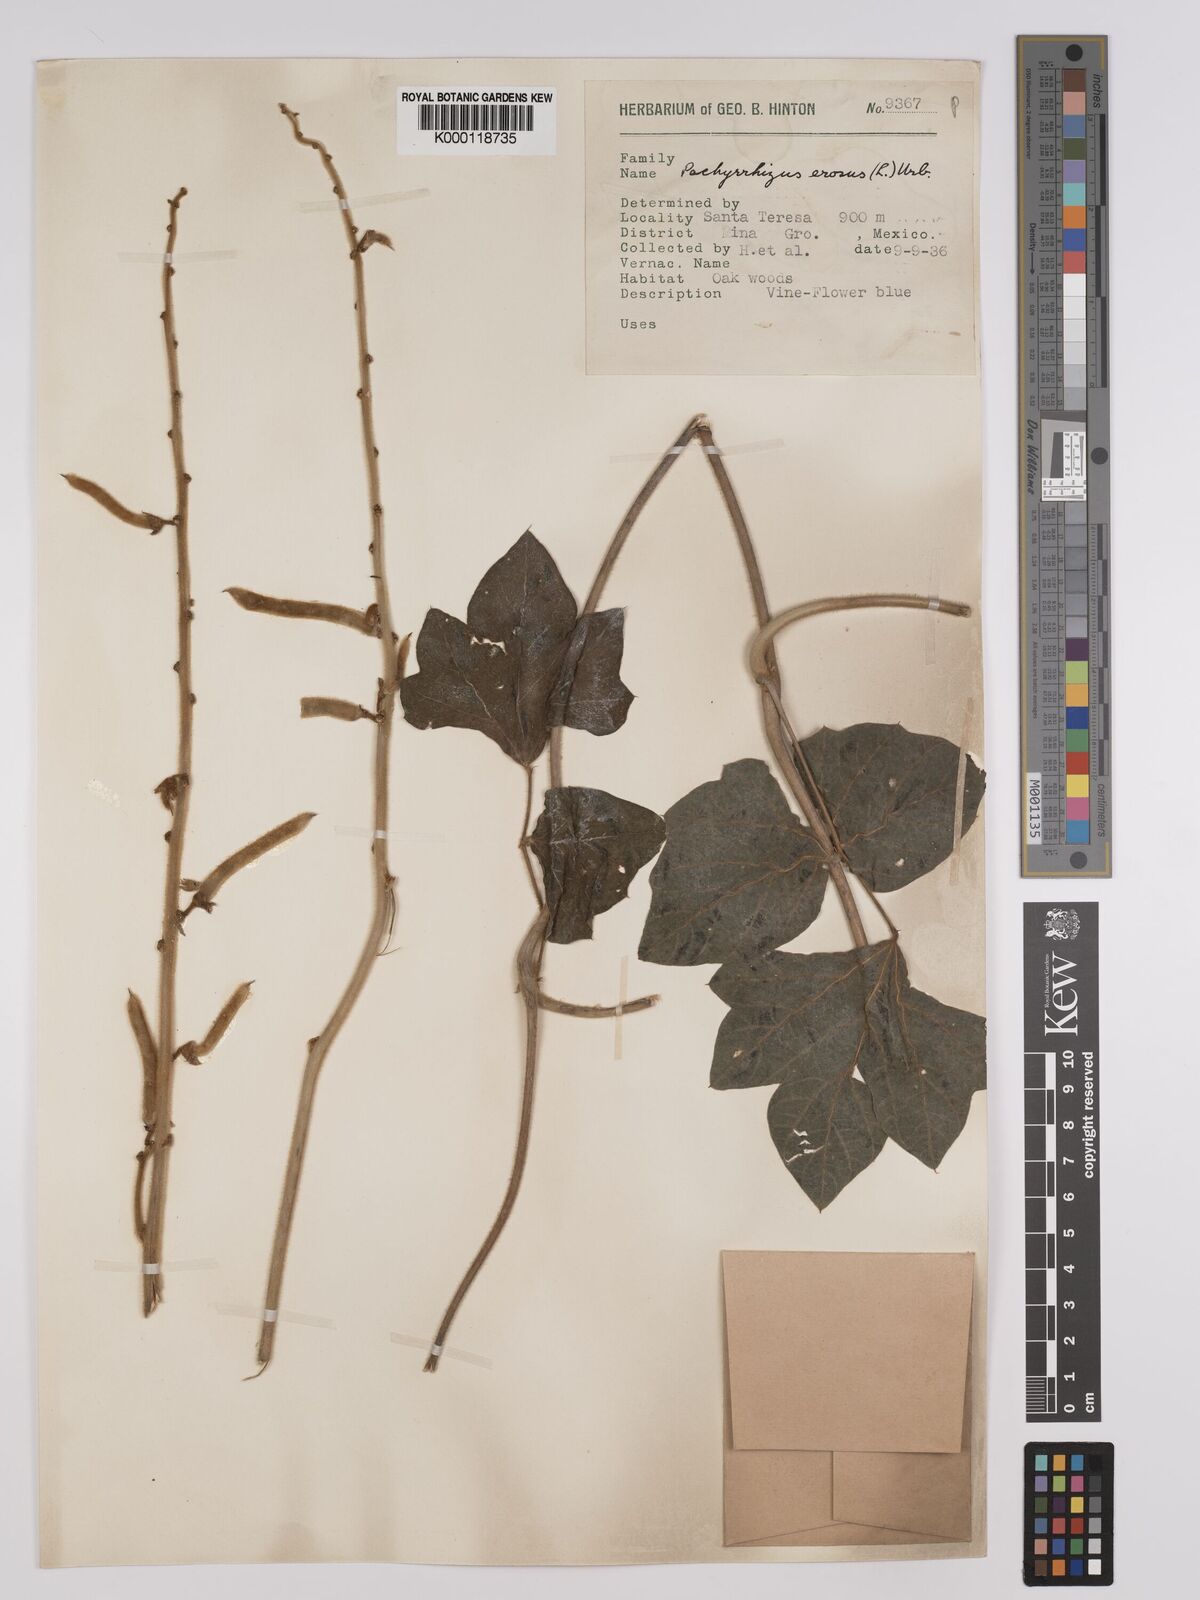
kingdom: Plantae
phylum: Tracheophyta
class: Magnoliopsida
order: Fabales
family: Fabaceae
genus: Pachyrhizus
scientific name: Pachyrhizus erosus
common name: Yam bean
